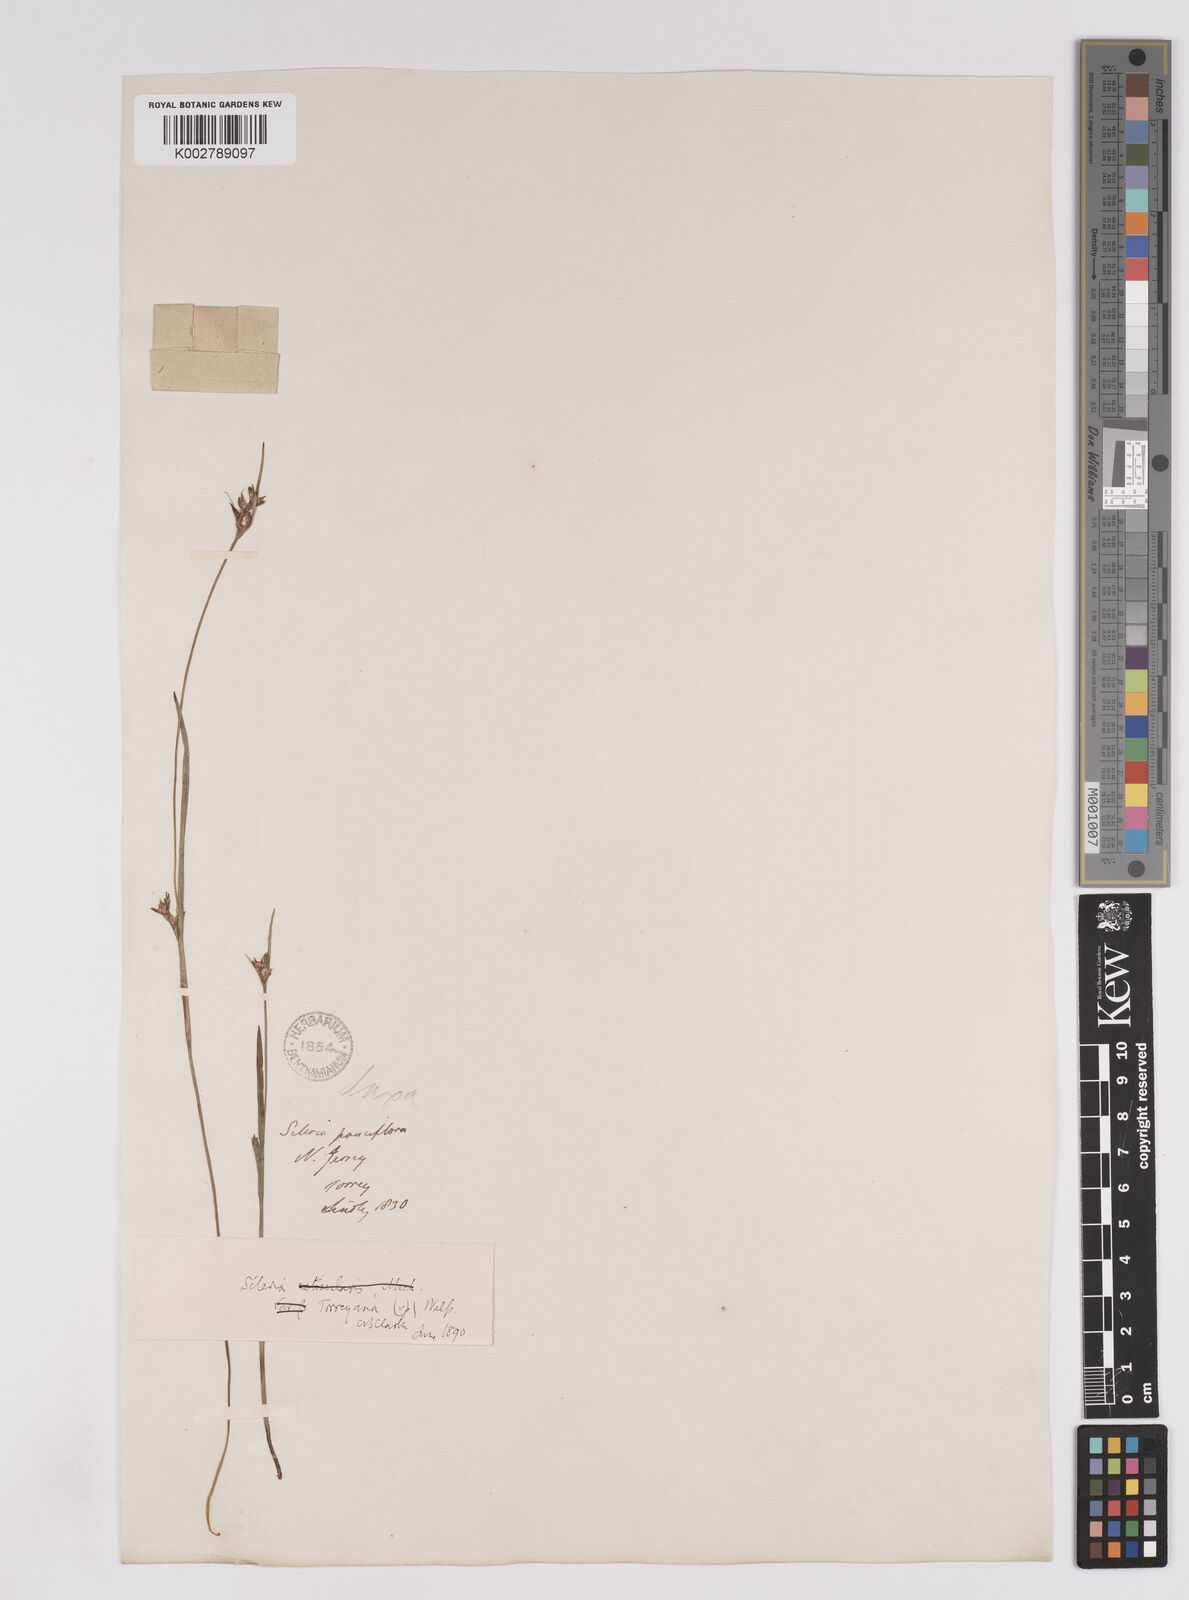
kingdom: Plantae
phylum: Tracheophyta
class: Liliopsida
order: Poales
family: Cyperaceae
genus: Scleria
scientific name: Scleria muehlenbergii
